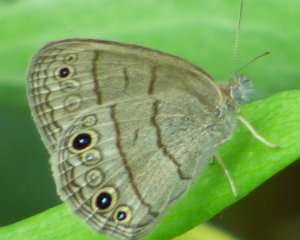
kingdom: Animalia
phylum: Arthropoda
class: Insecta
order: Lepidoptera
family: Nymphalidae
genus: Hermeuptychia
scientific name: Hermeuptychia hermes
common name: Carolina Satyr
